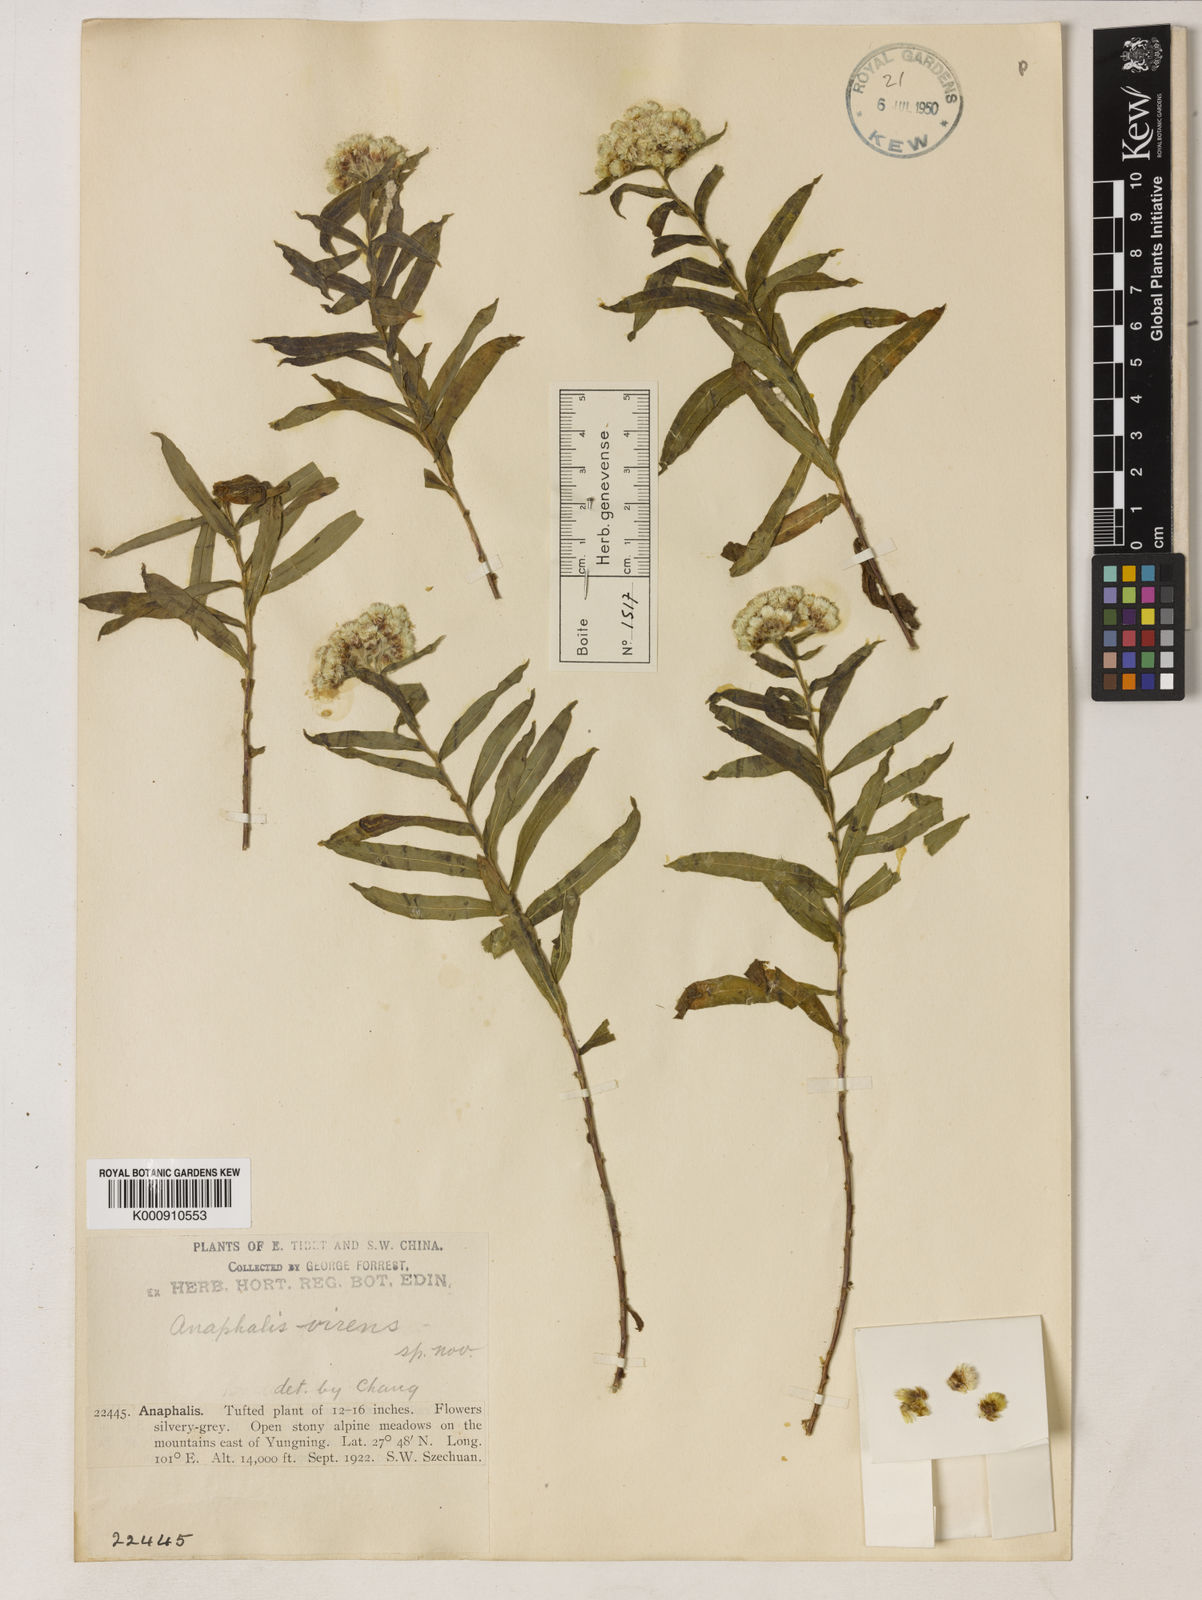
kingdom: Plantae
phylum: Tracheophyta
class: Magnoliopsida
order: Asterales
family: Asteraceae
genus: Anaphalis
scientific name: Anaphalis virens
